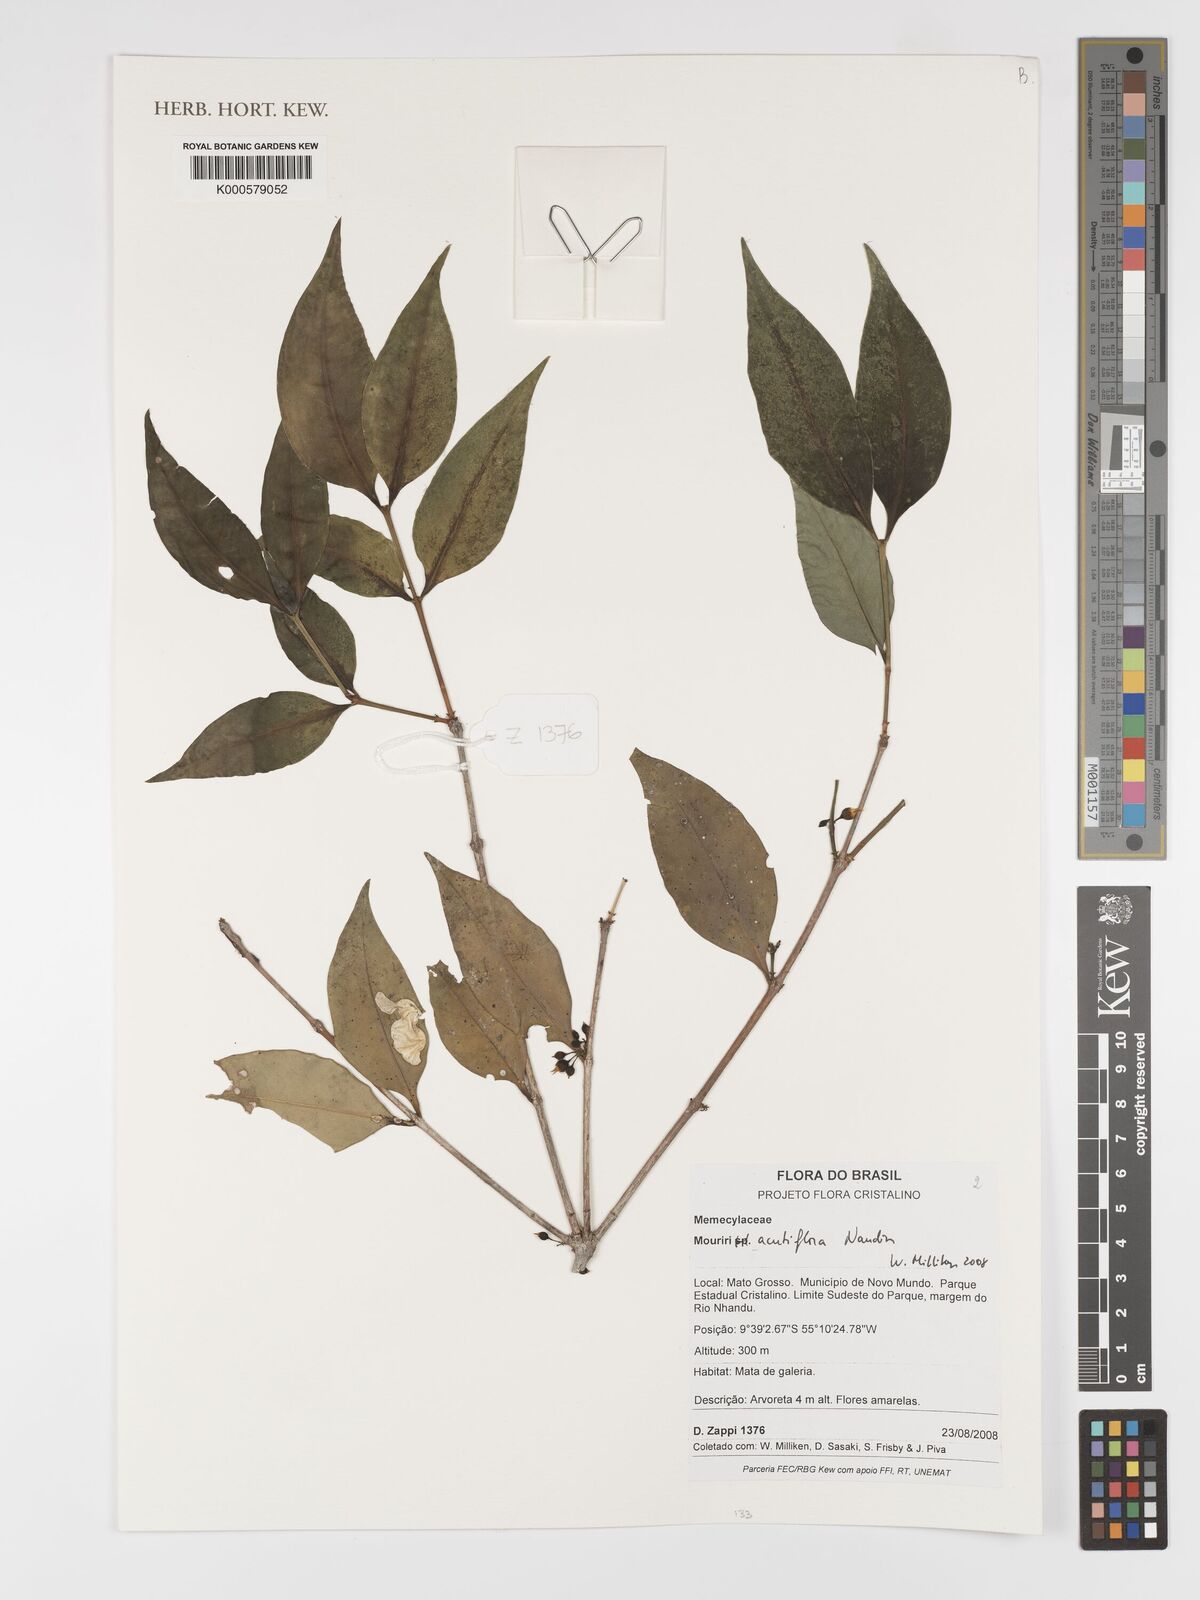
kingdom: Plantae
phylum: Tracheophyta
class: Magnoliopsida
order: Myrtales
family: Melastomataceae
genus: Mouriri
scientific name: Mouriri acutiflora
